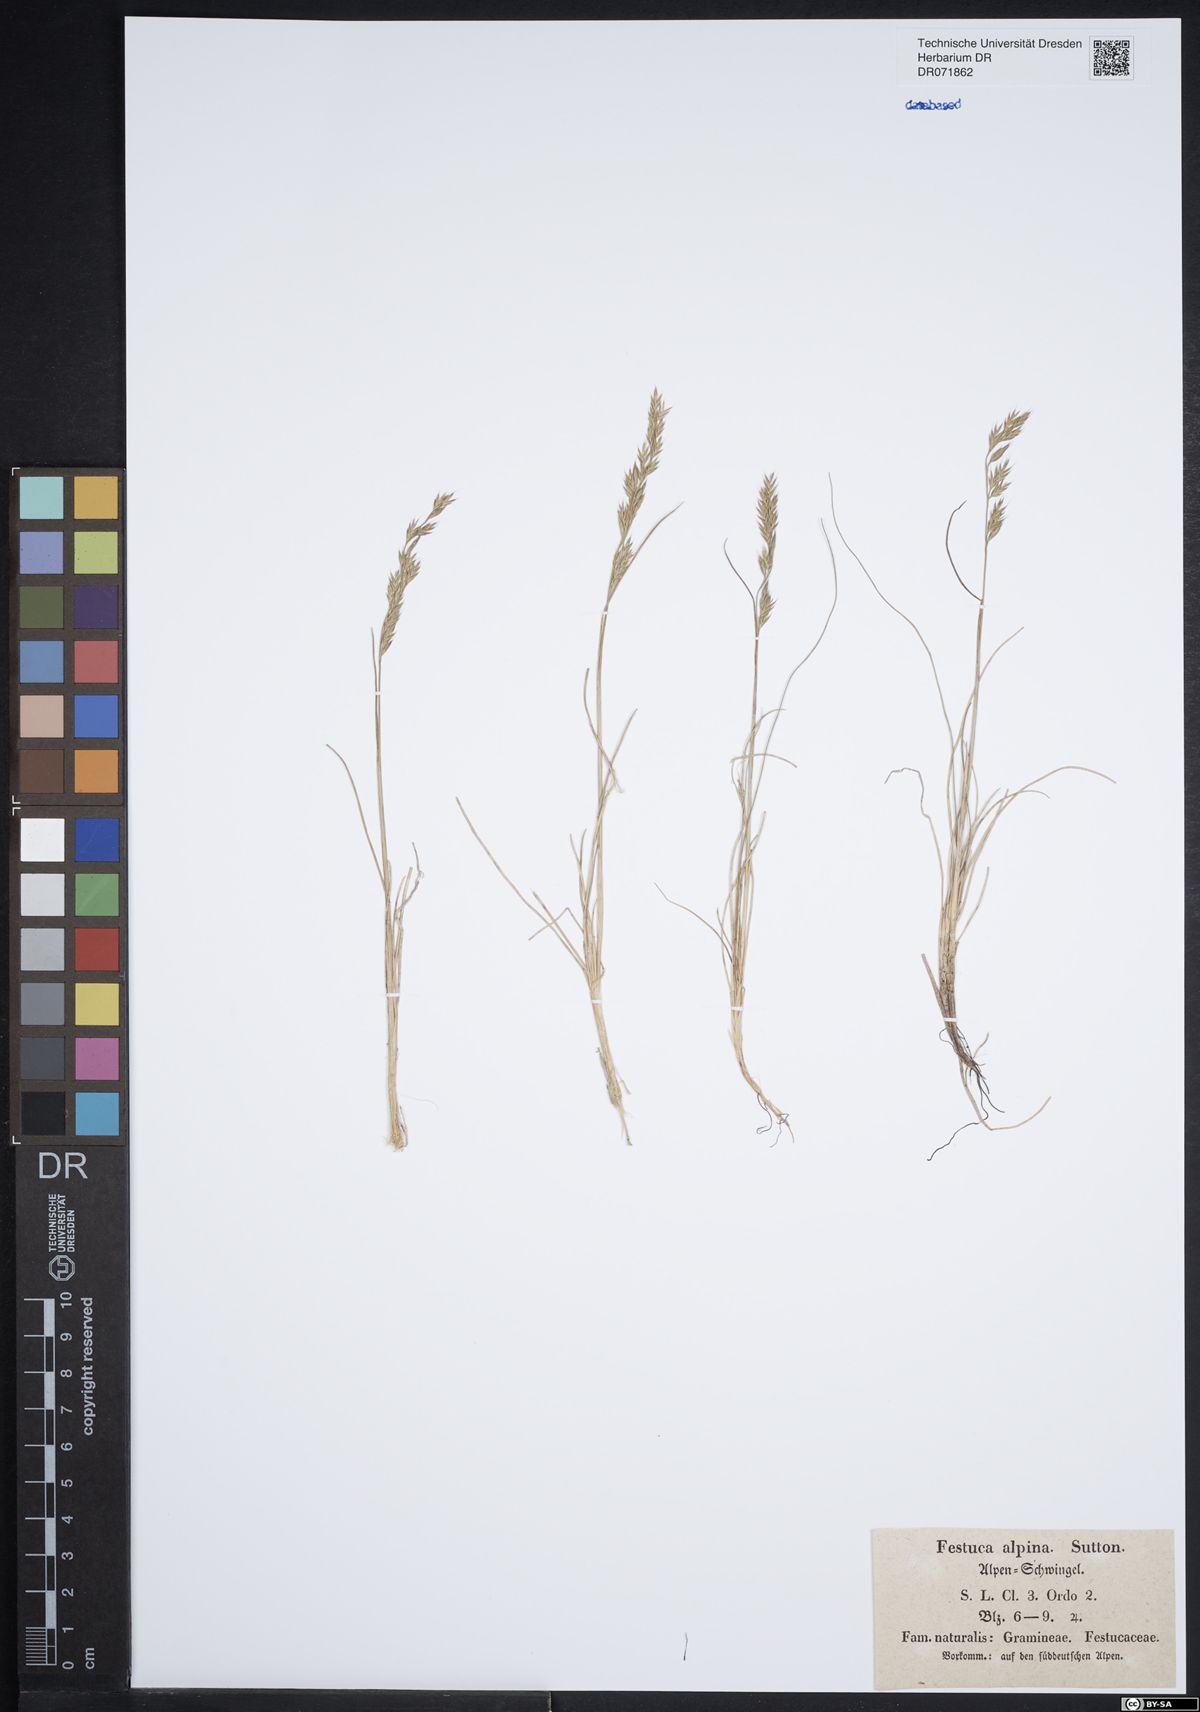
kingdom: Plantae
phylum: Tracheophyta
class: Liliopsida
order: Poales
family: Poaceae
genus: Festuca
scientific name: Festuca alpina
